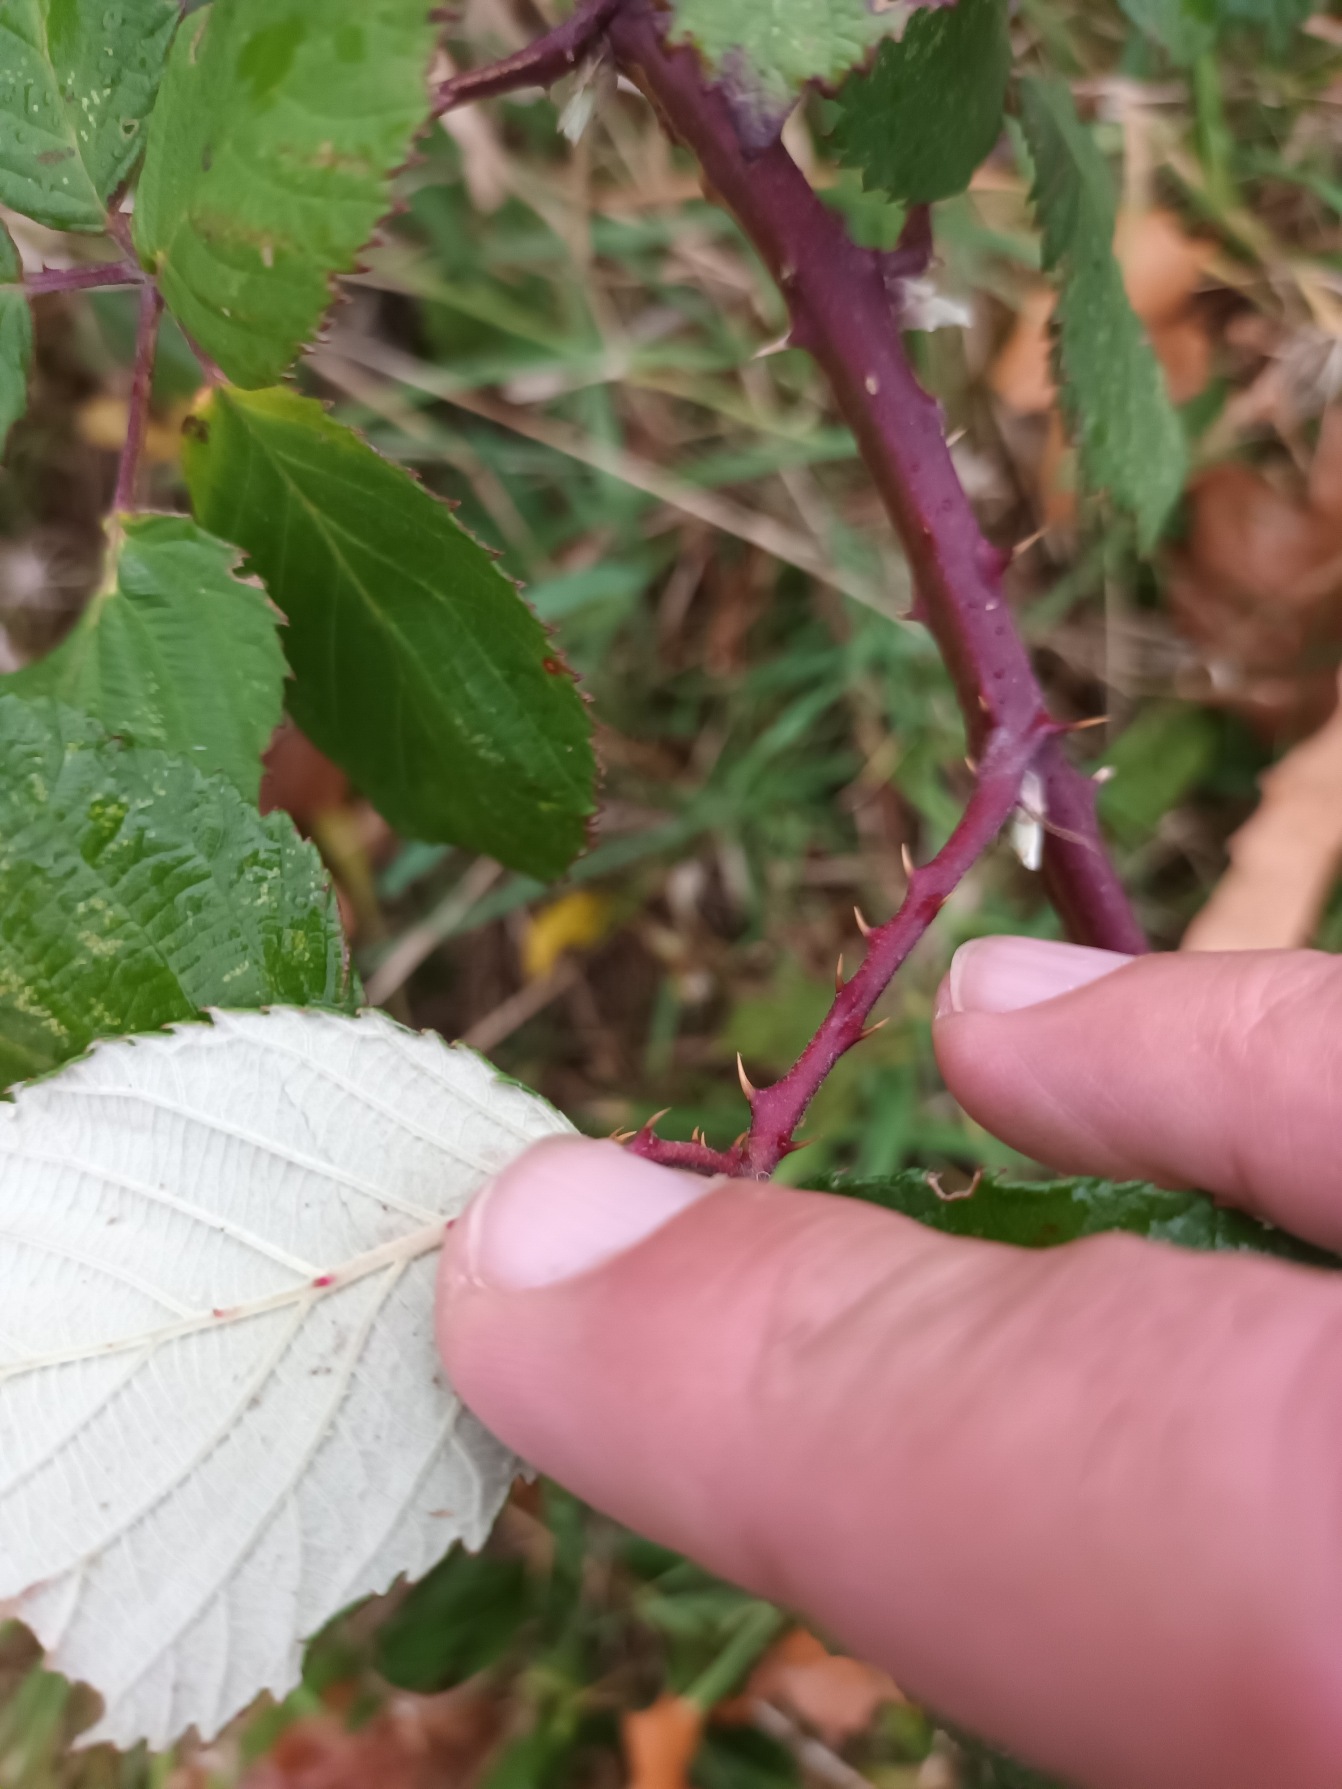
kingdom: Plantae
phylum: Tracheophyta
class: Magnoliopsida
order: Rosales
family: Rosaceae
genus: Rubus
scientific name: Rubus armeniacus
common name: Armensk brombær
